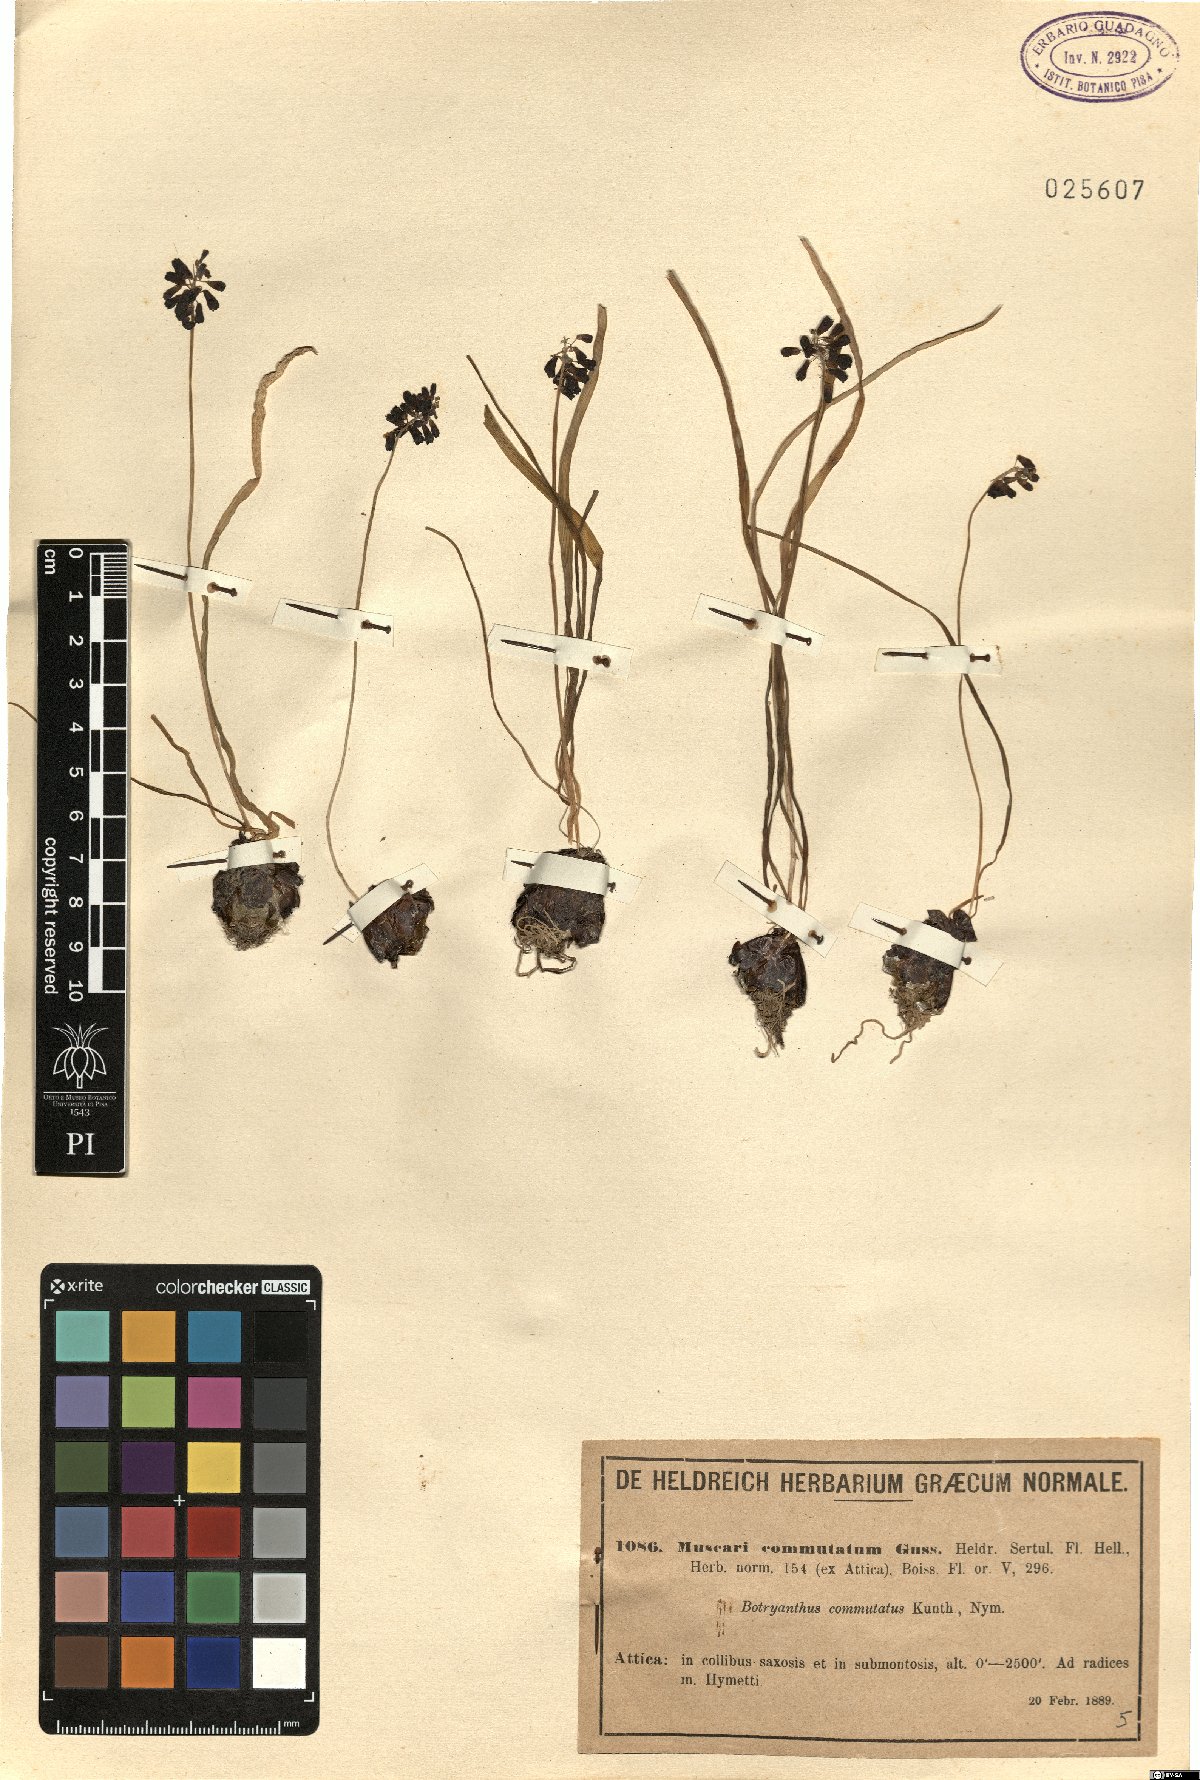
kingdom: Plantae
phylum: Tracheophyta
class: Liliopsida
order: Asparagales
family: Asparagaceae
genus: Muscari
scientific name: Muscari commutatum
